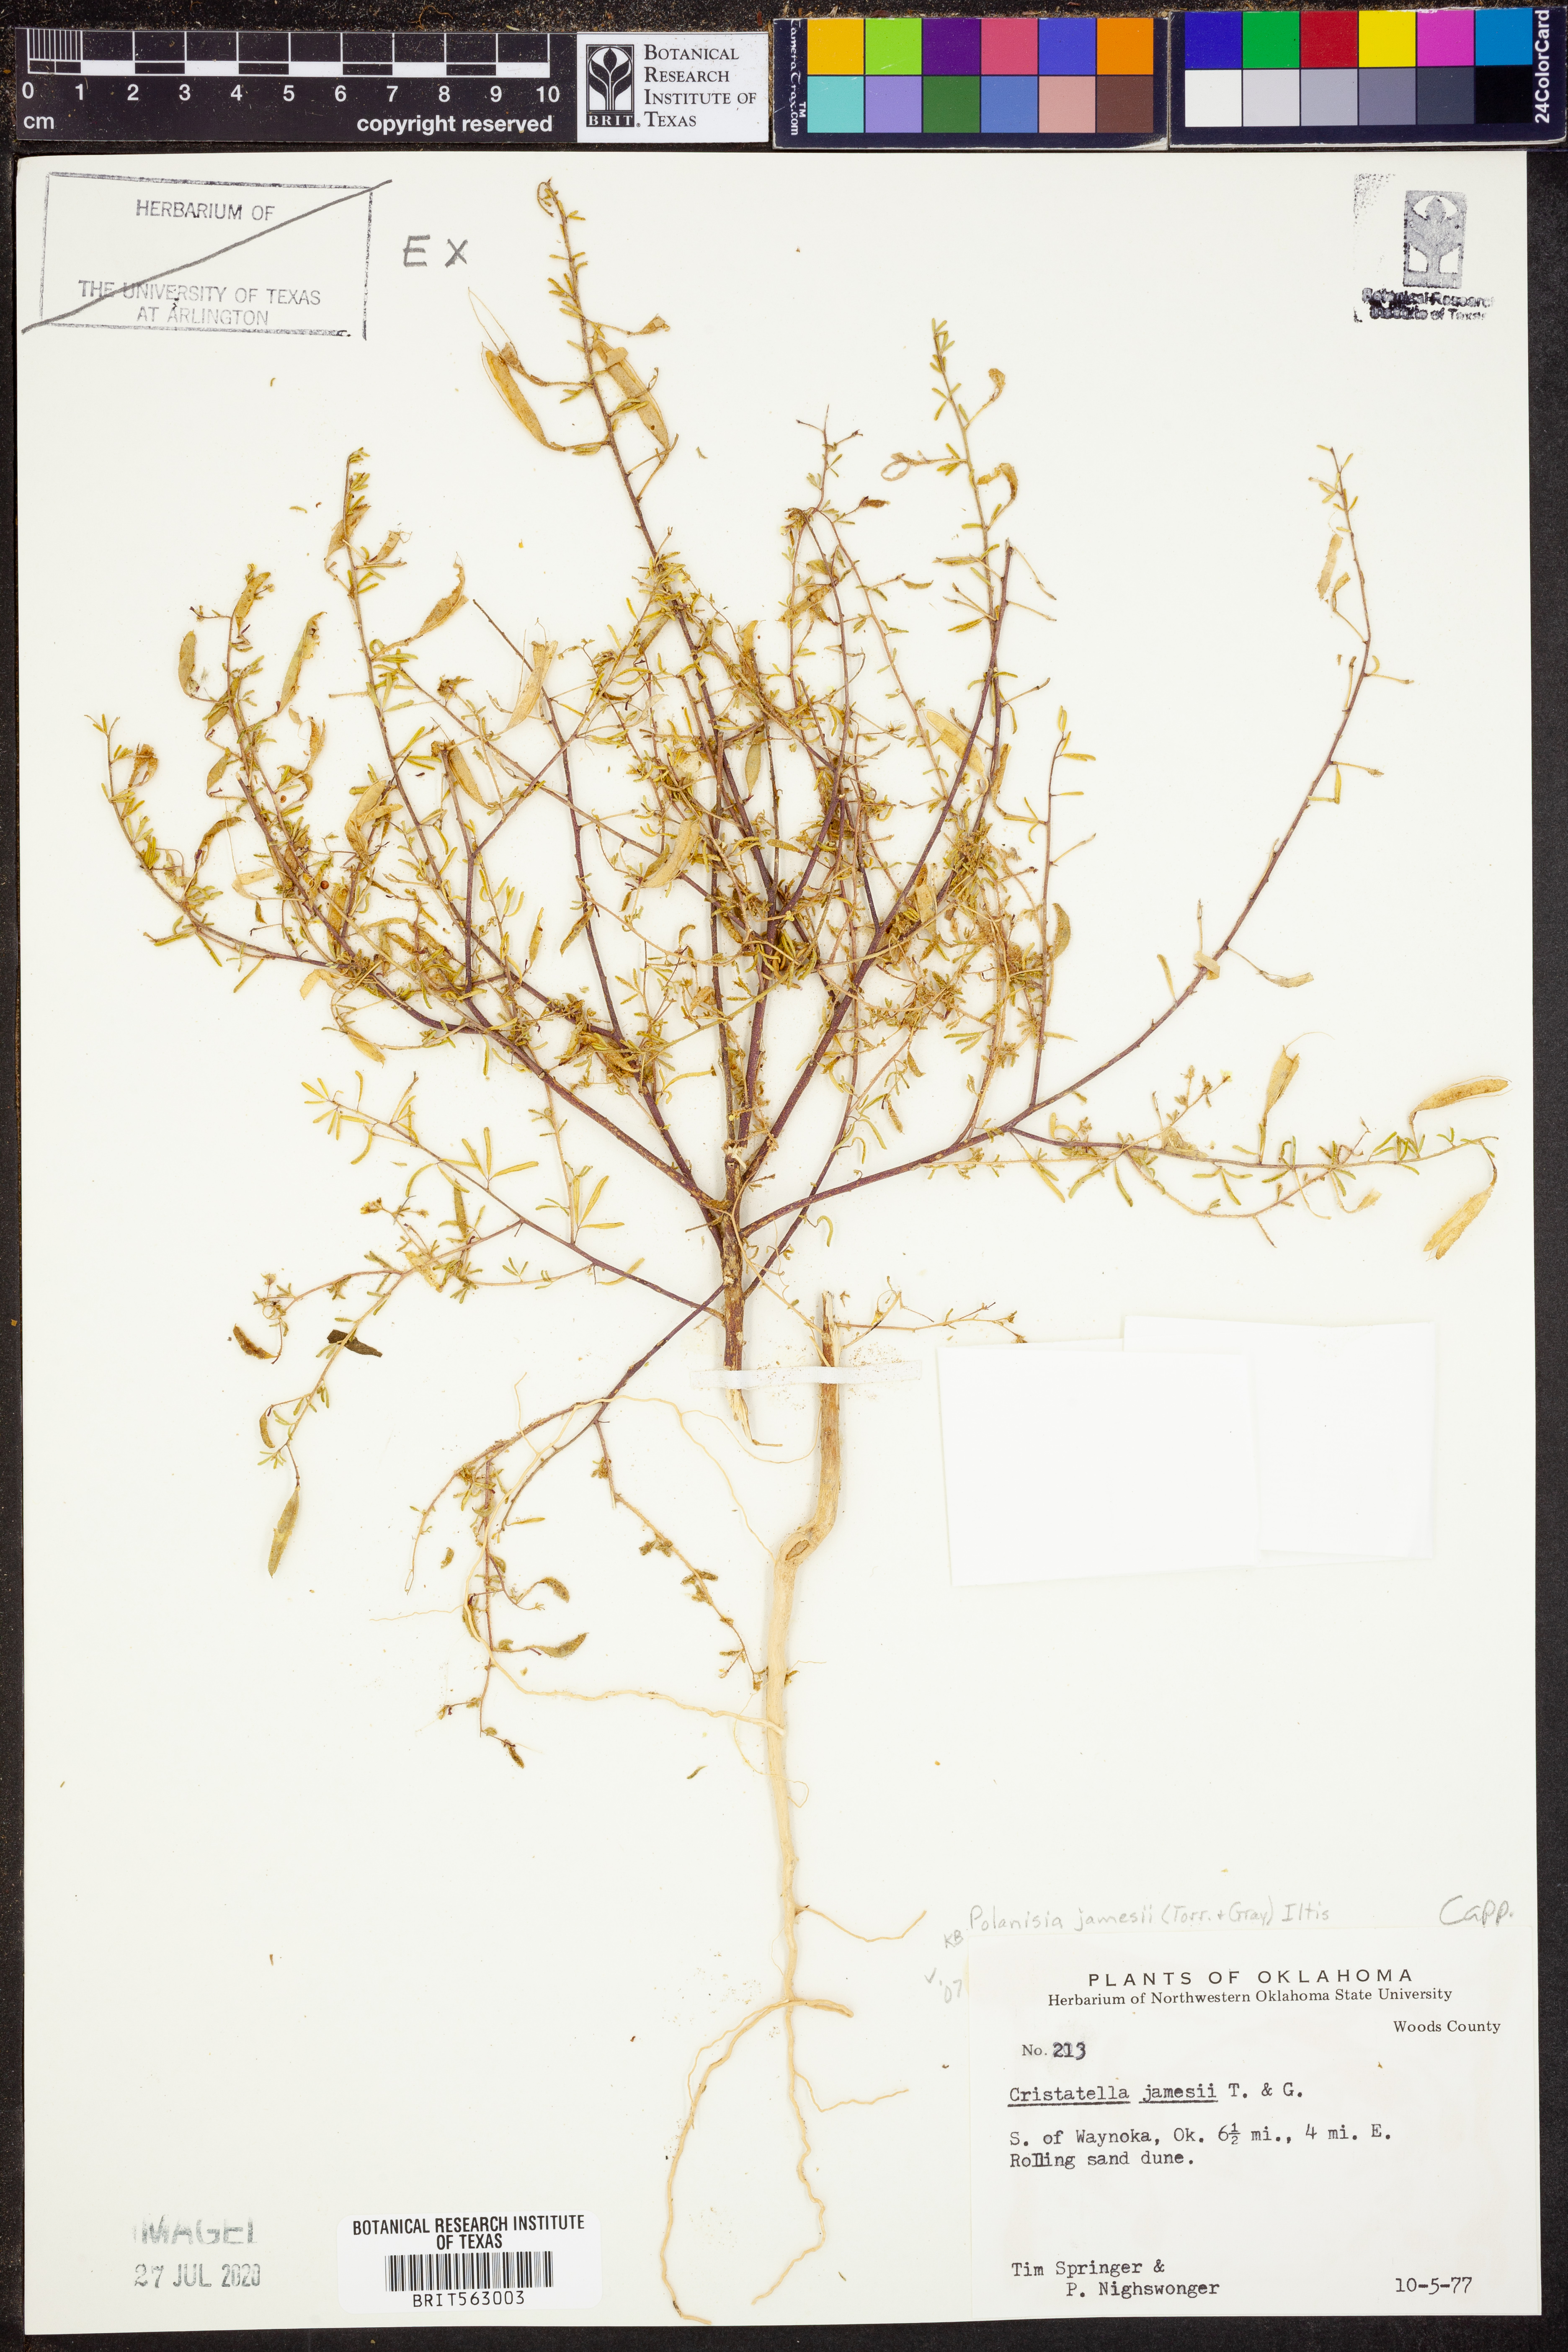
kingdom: Plantae
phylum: Tracheophyta
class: Magnoliopsida
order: Brassicales
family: Cleomaceae
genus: Polanisia
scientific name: Polanisia jamesii
